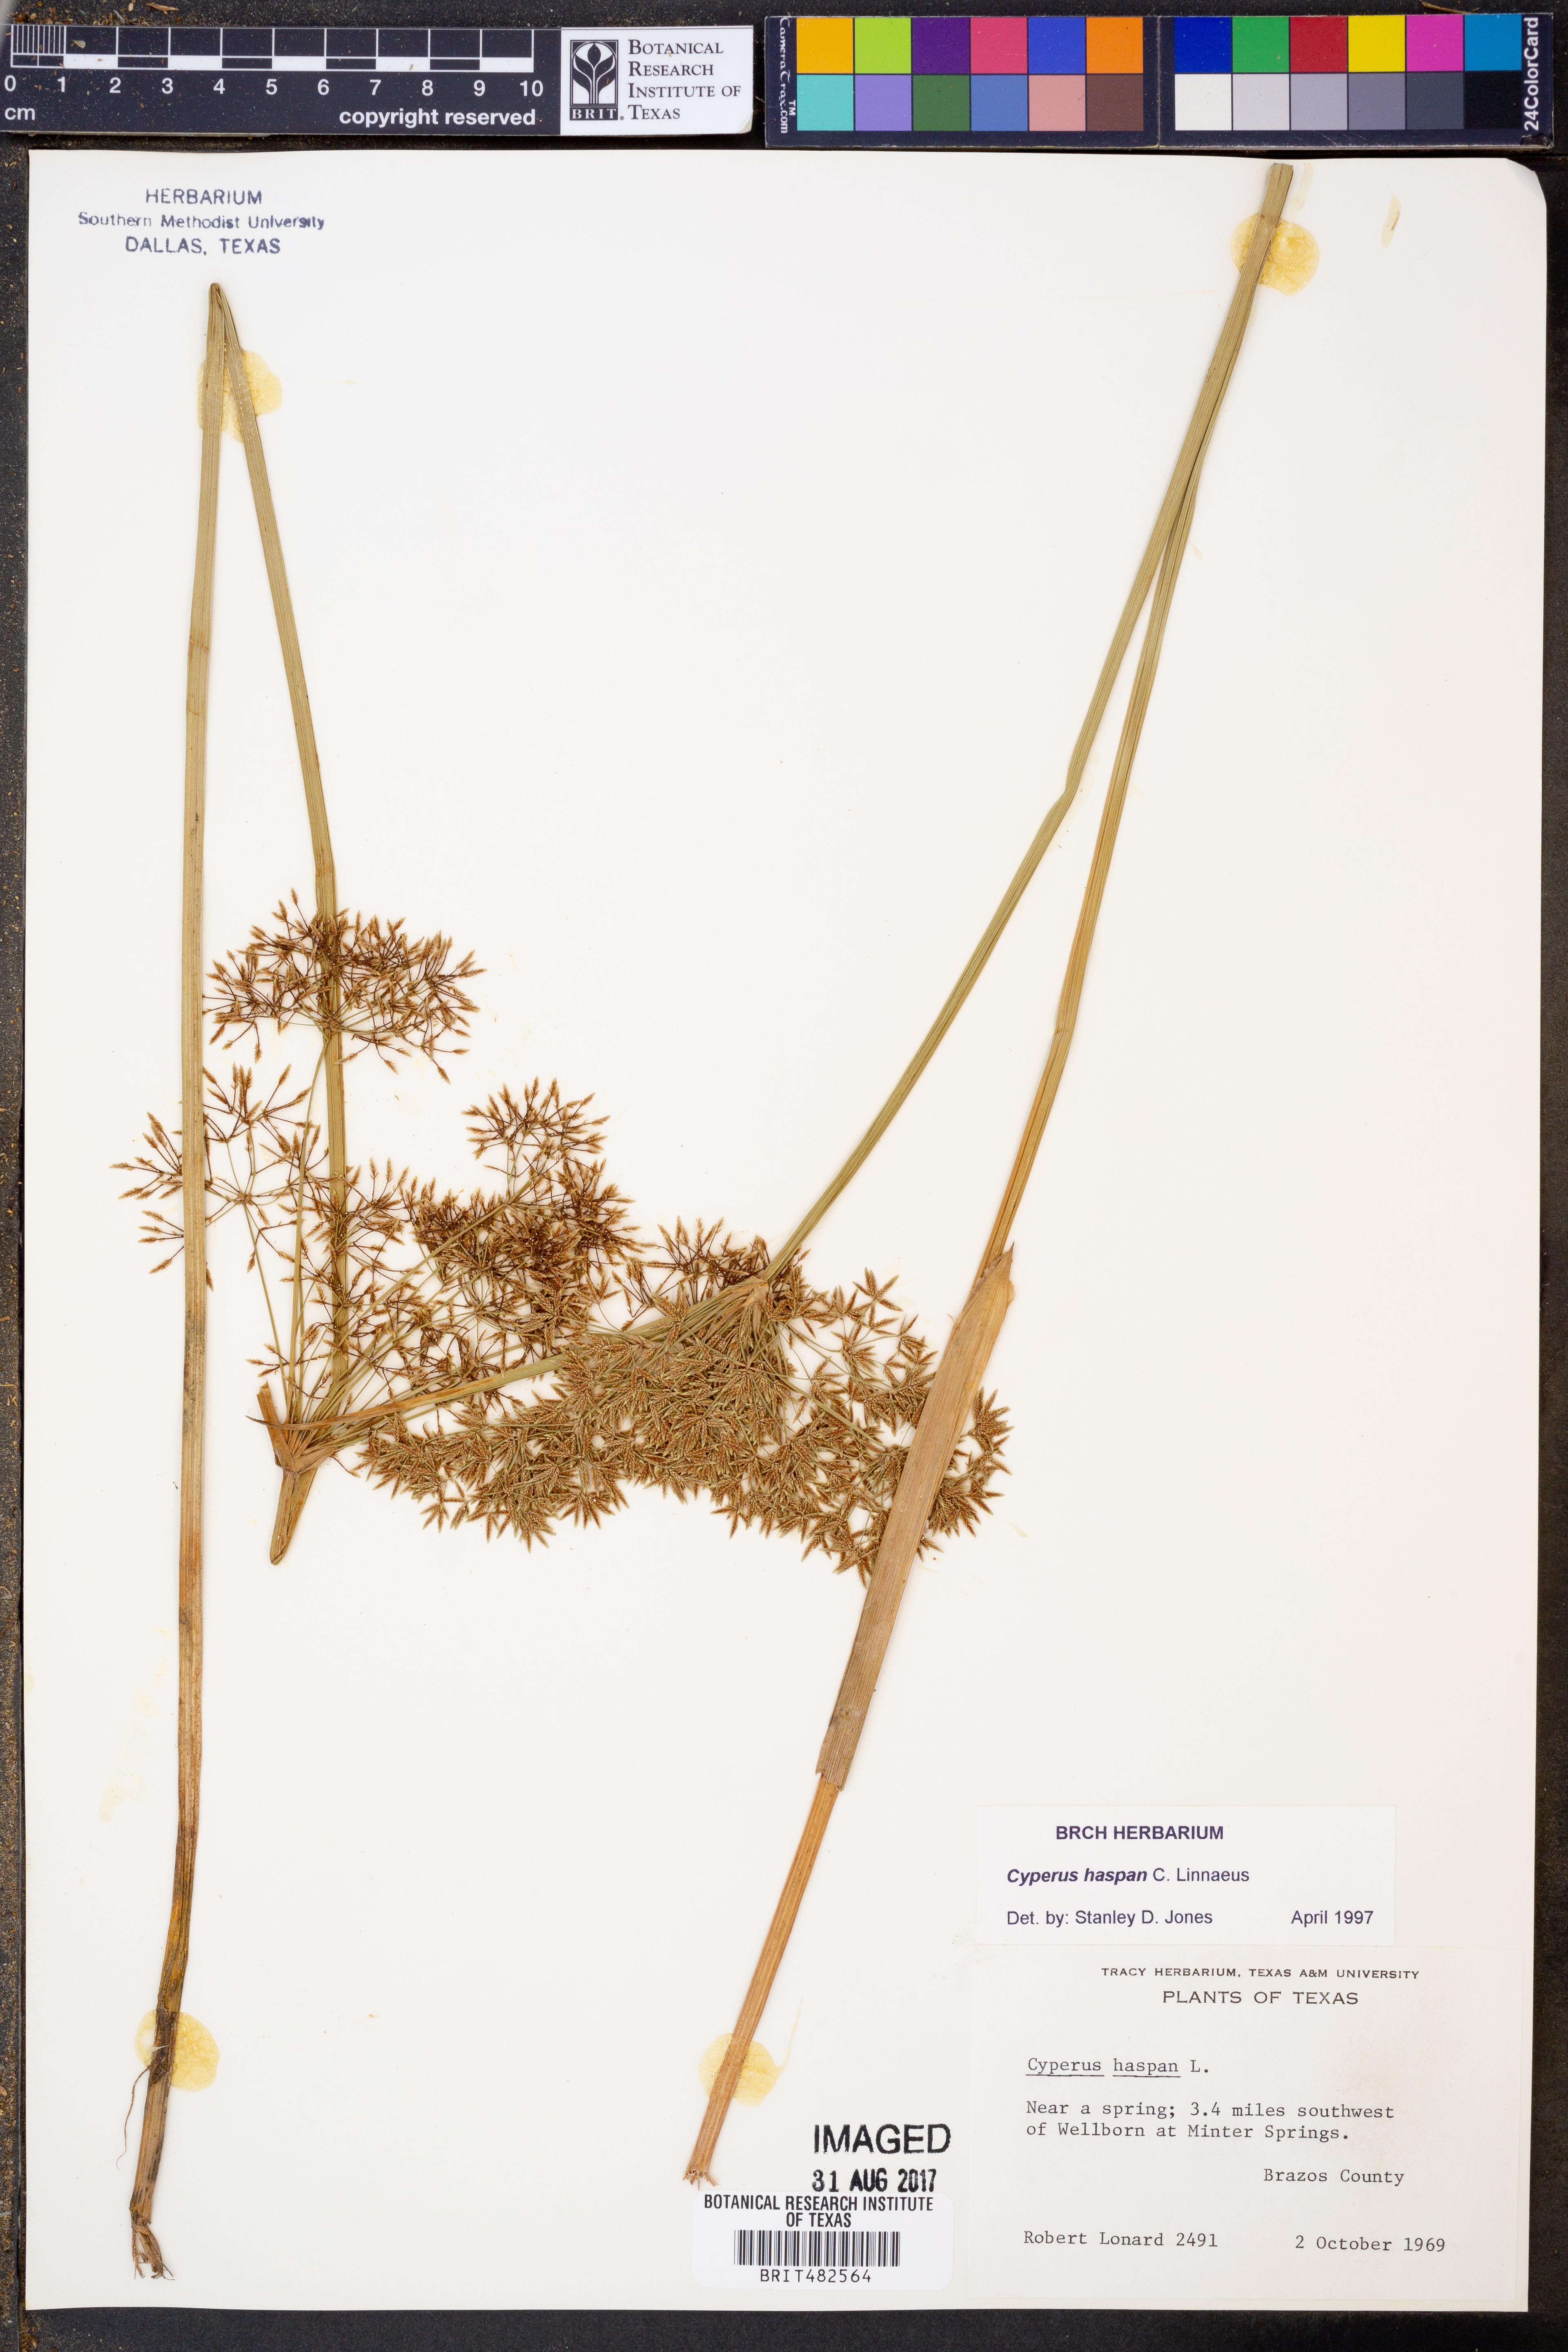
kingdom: Plantae
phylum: Tracheophyta
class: Liliopsida
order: Poales
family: Cyperaceae
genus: Cyperus
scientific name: Cyperus haspan
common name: Haspan flatsedge
